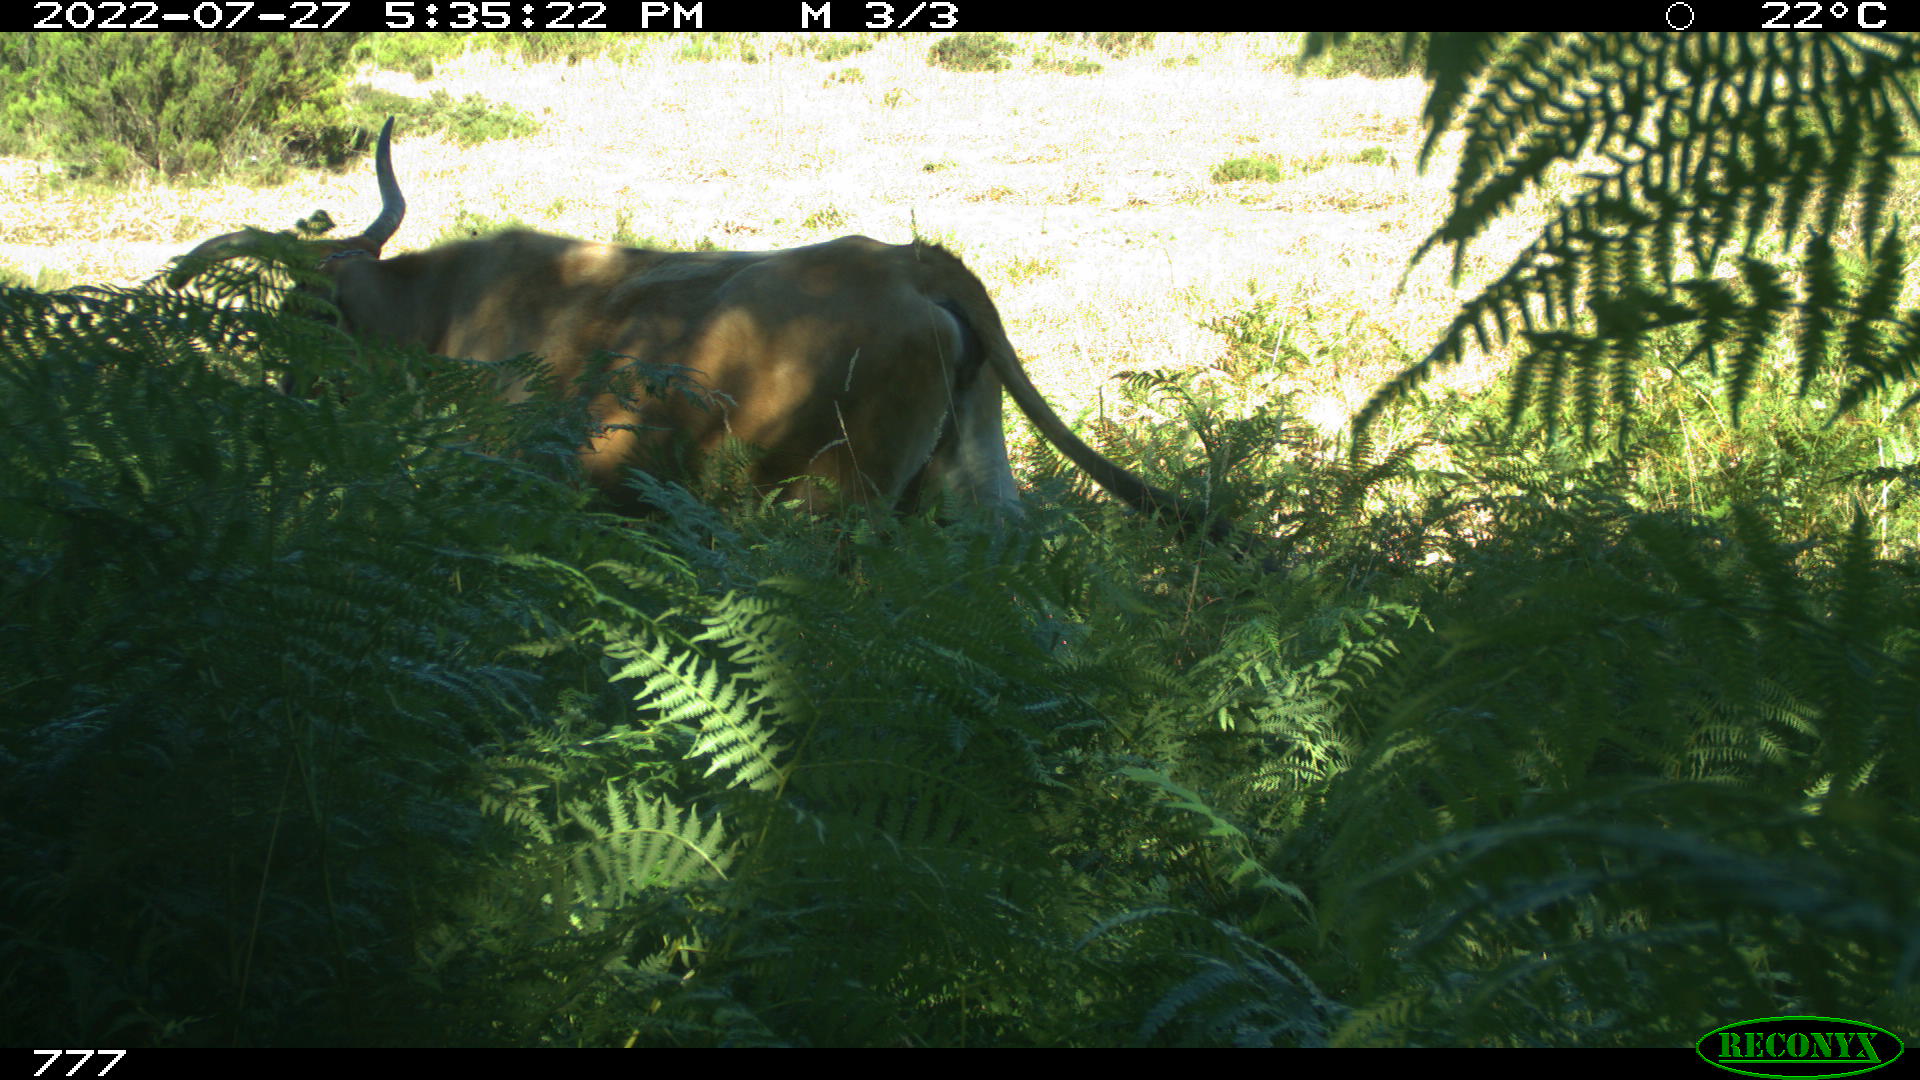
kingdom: Animalia
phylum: Chordata
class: Mammalia
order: Artiodactyla
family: Bovidae
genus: Bos
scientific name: Bos taurus
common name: Domesticated cattle
